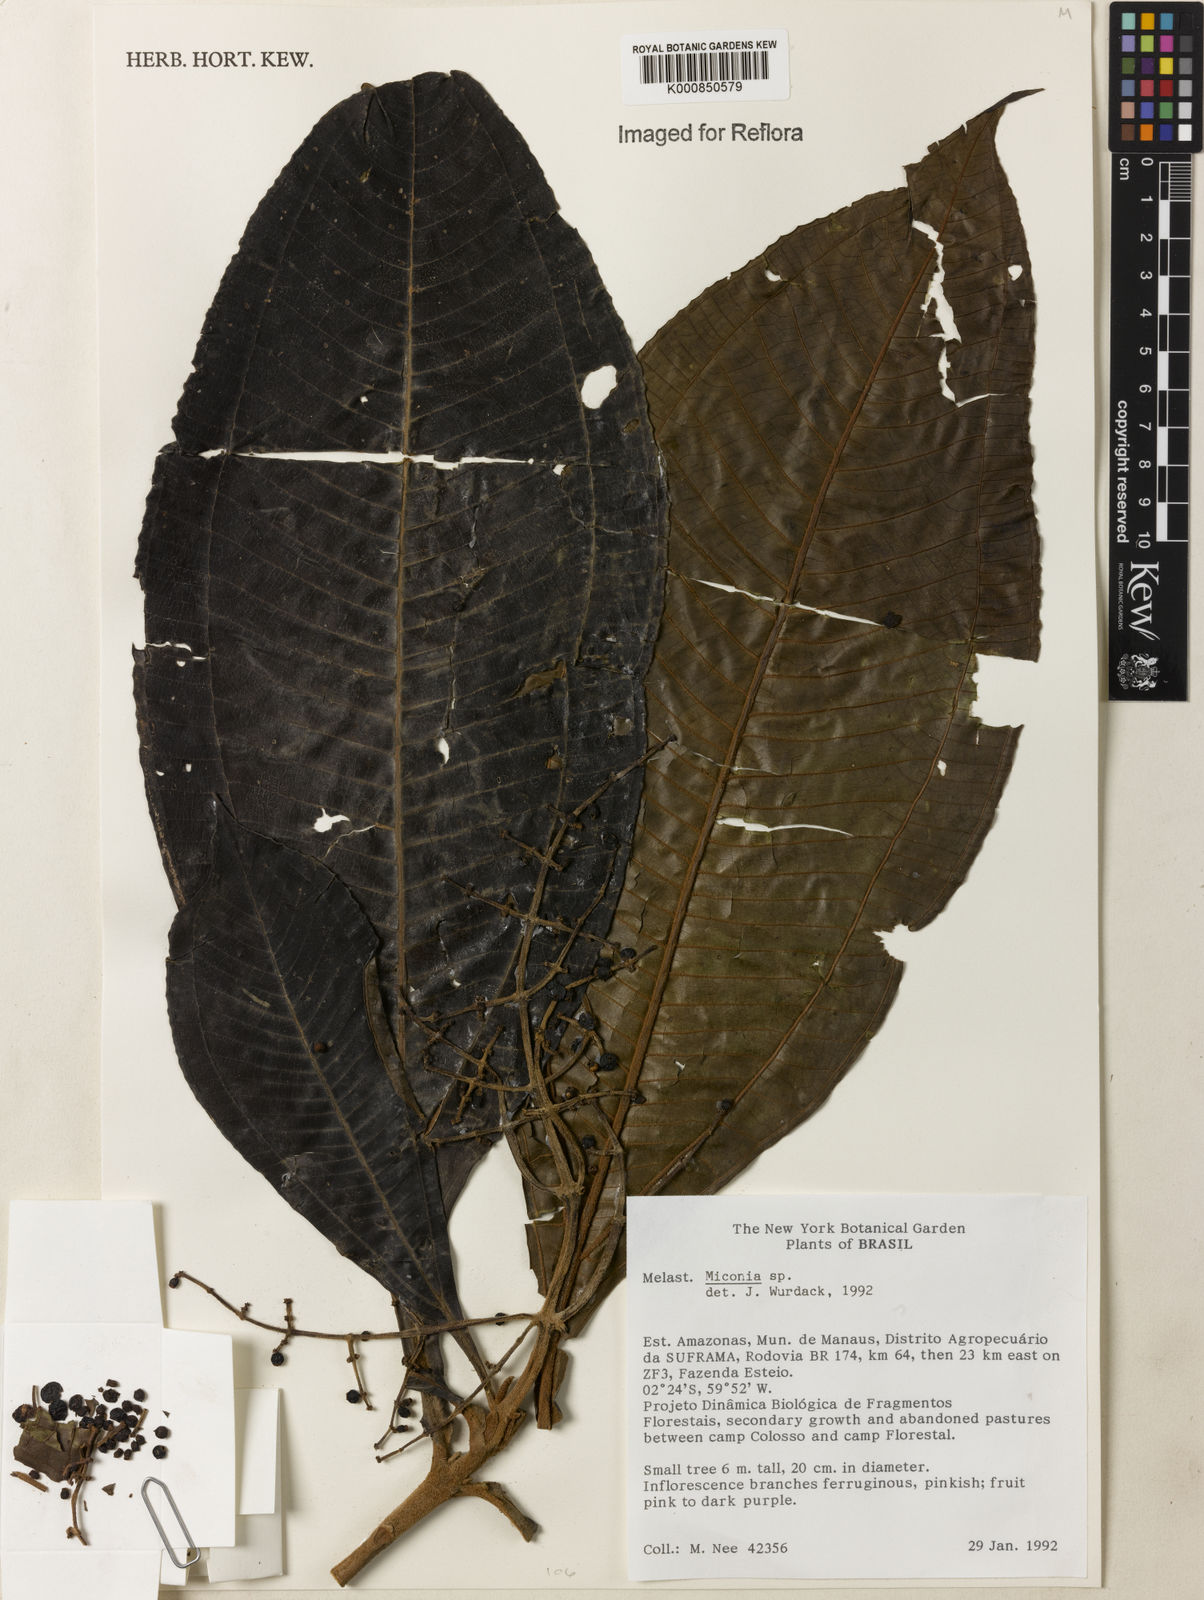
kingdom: Plantae
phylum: Tracheophyta
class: Magnoliopsida
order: Myrtales
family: Melastomataceae
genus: Miconia
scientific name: Miconia
